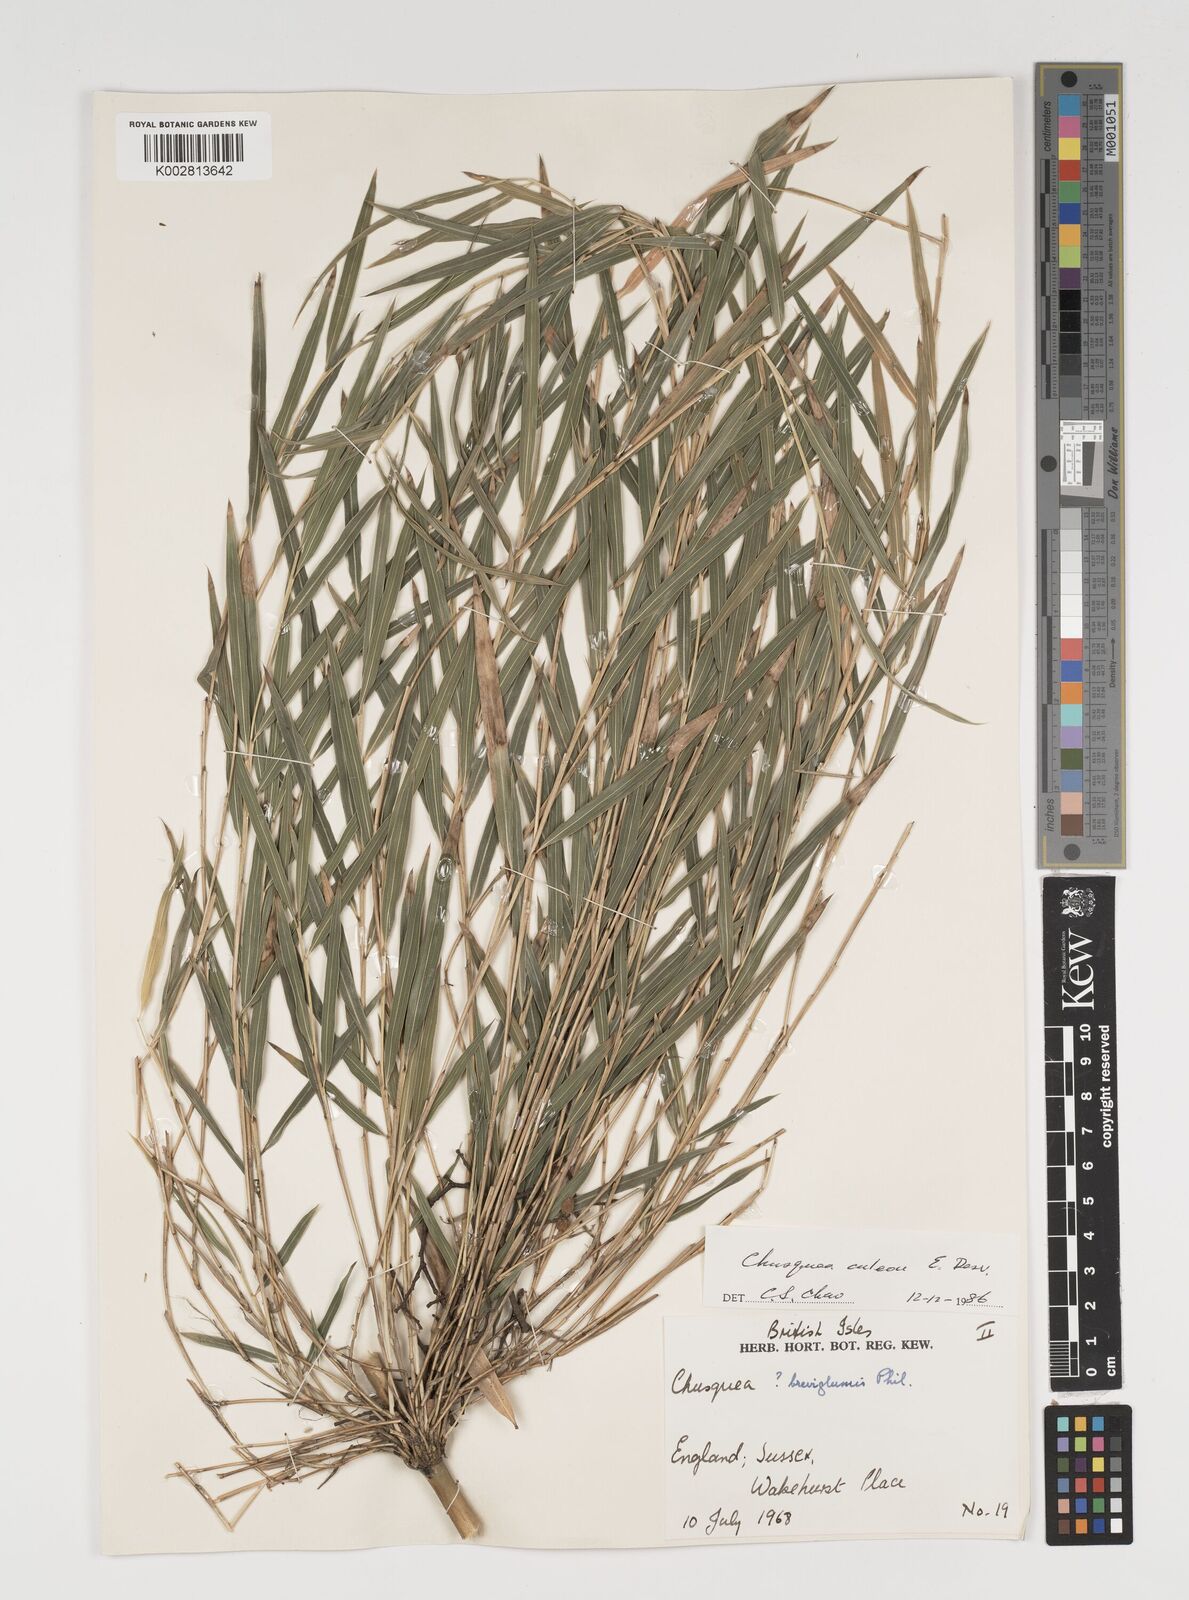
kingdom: Plantae
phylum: Tracheophyta
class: Liliopsida
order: Poales
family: Poaceae
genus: Chusquea
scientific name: Chusquea andina
